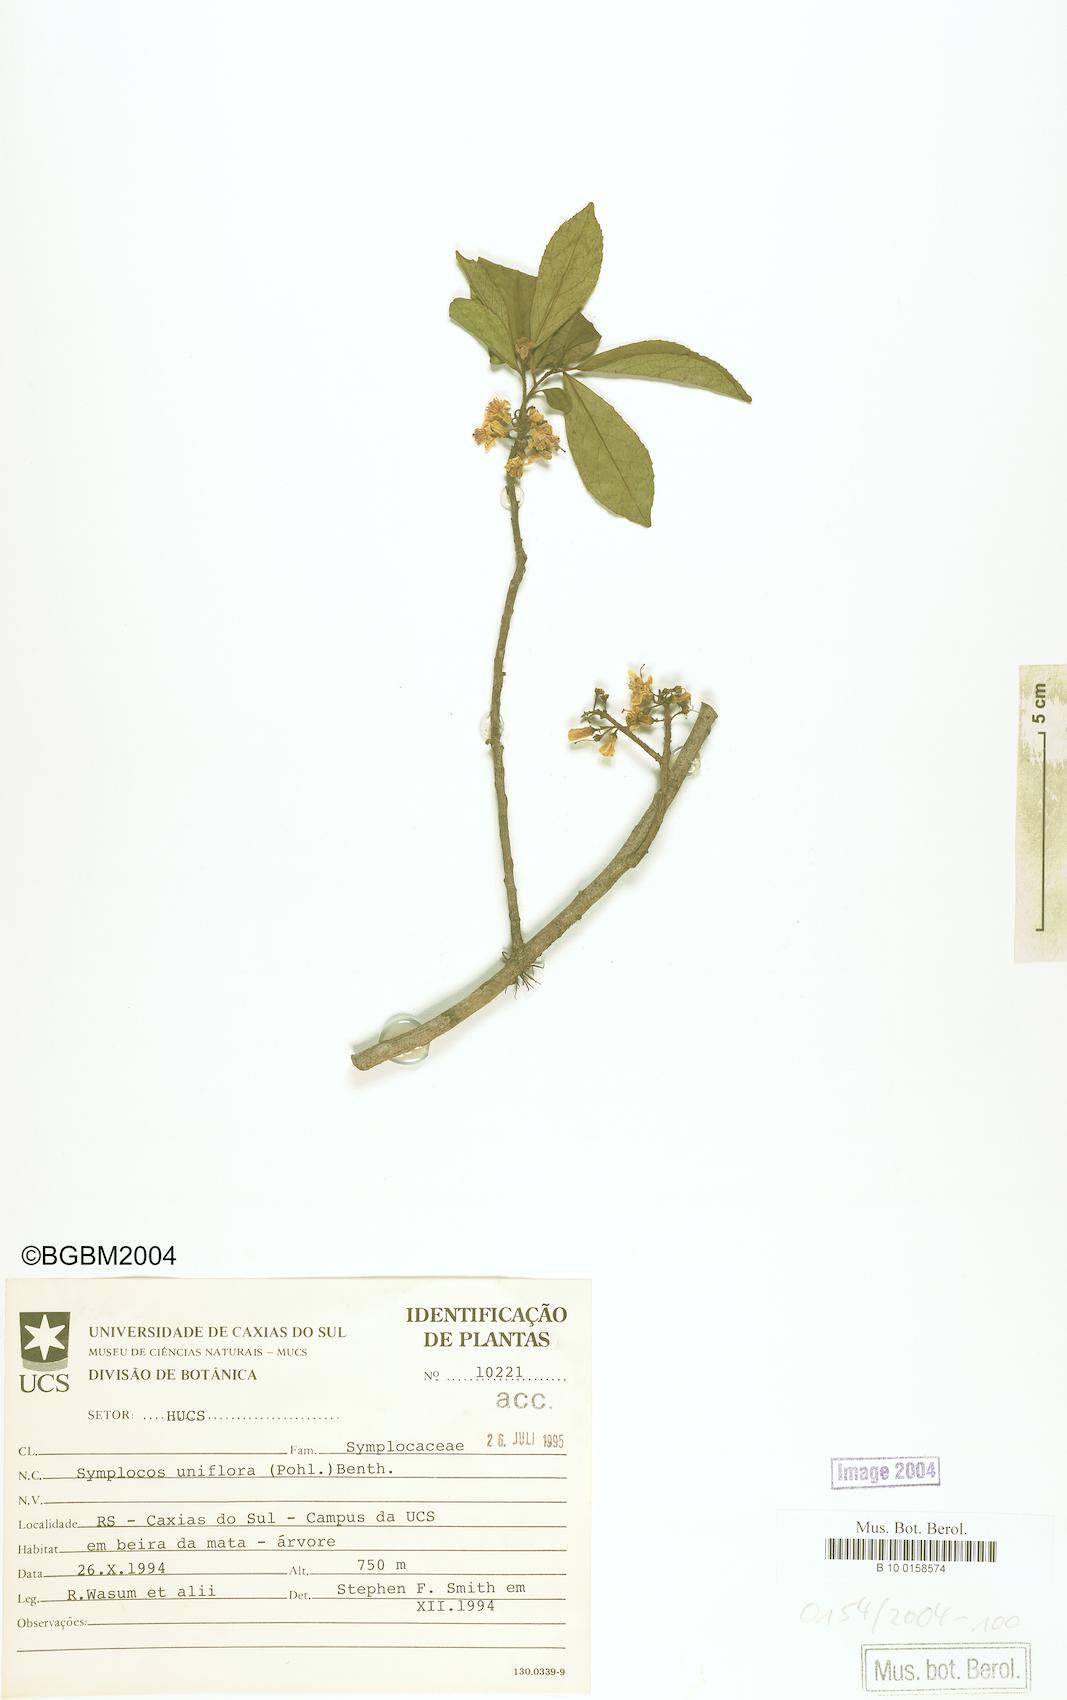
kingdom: Plantae
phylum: Tracheophyta
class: Magnoliopsida
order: Ericales
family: Symplocaceae
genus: Symplocos
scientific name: Symplocos uniflora
